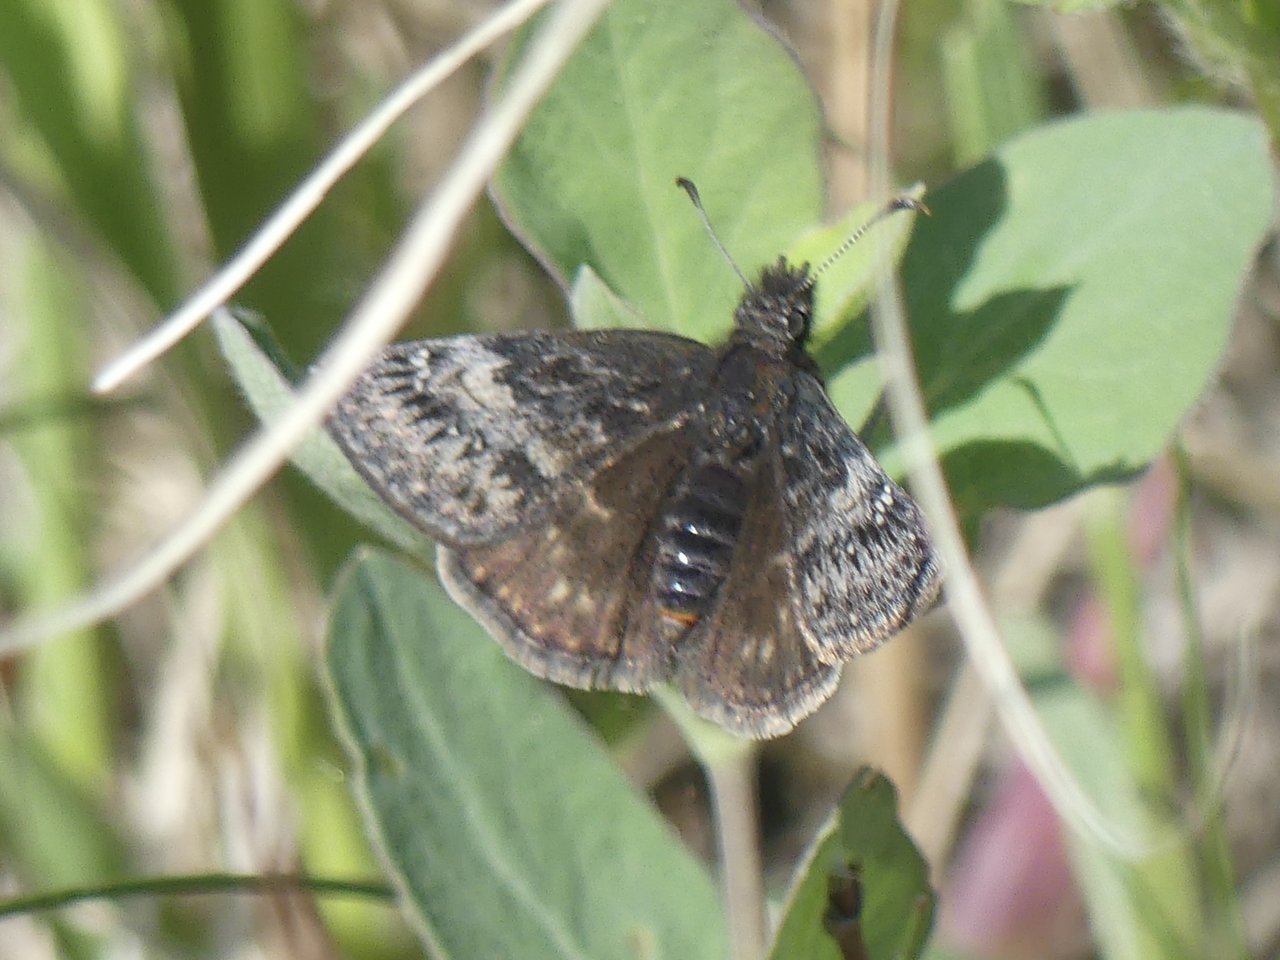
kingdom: Animalia
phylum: Arthropoda
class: Insecta
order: Lepidoptera
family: Hesperiidae
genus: Erynnis
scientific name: Erynnis icelus
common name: Dreamy Duskywing
